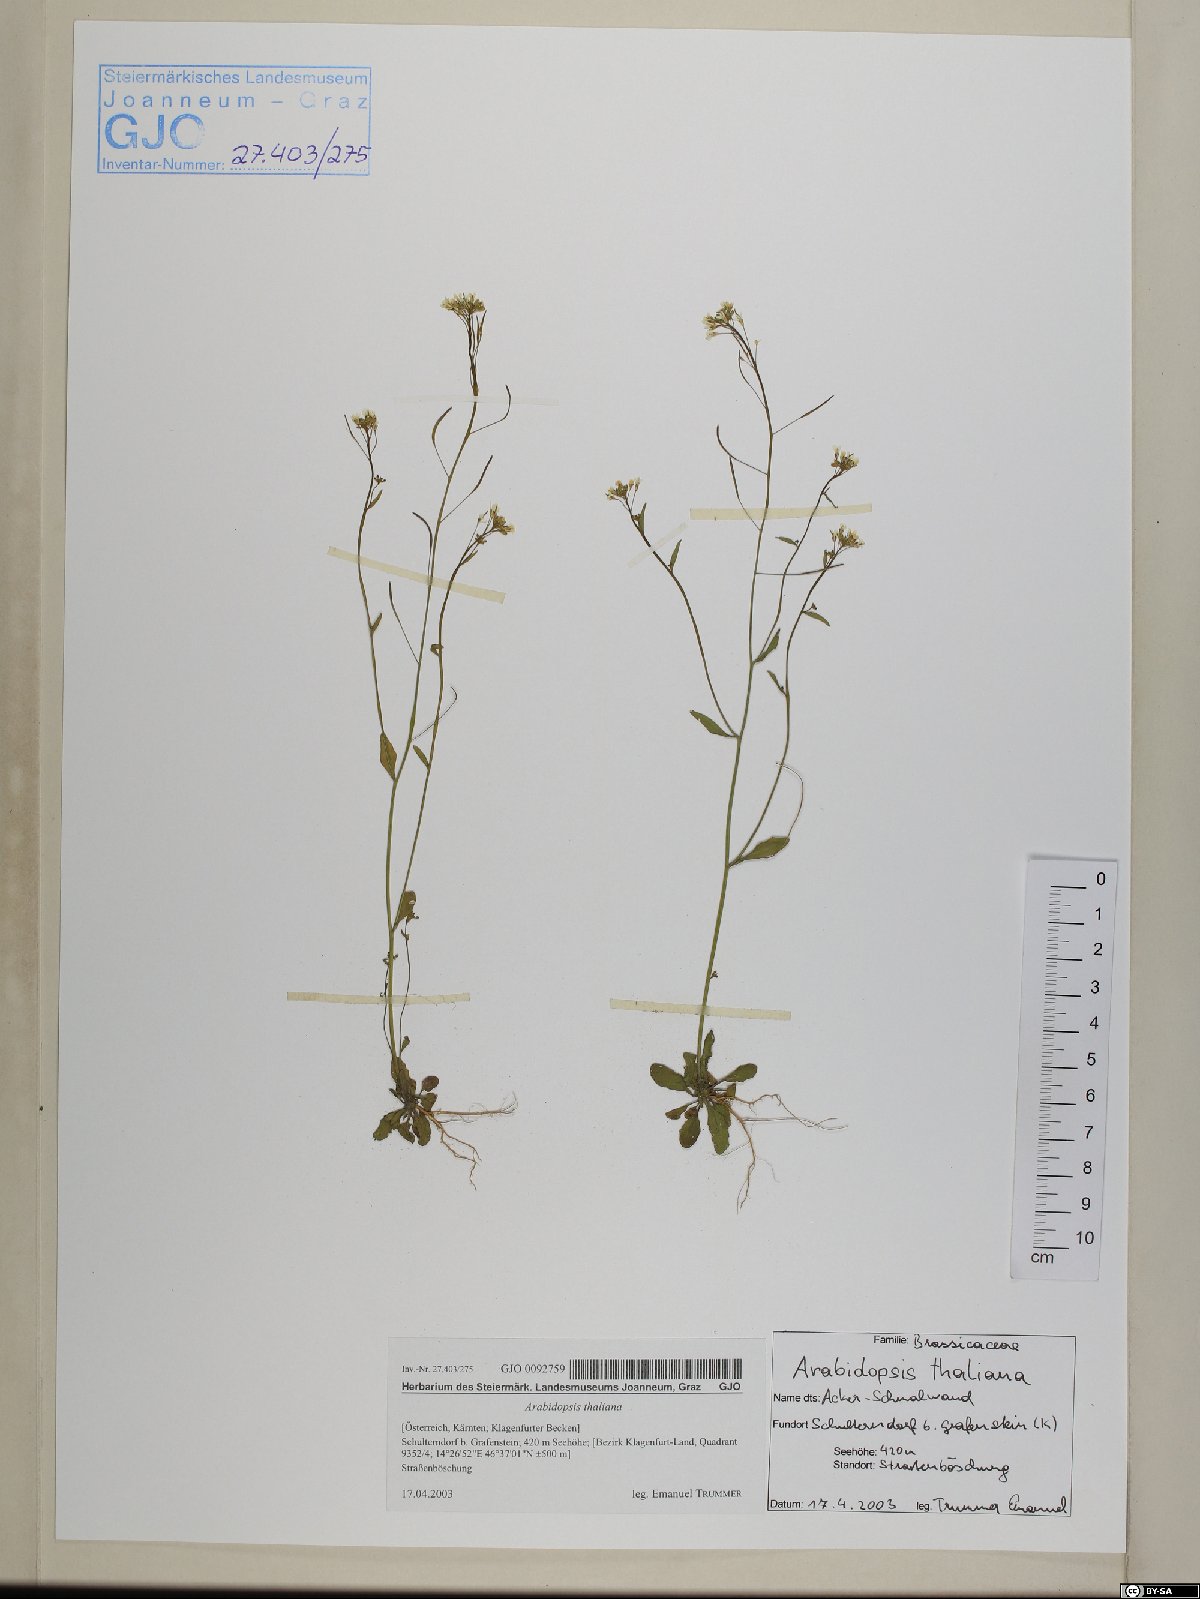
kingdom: Plantae
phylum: Tracheophyta
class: Magnoliopsida
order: Brassicales
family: Brassicaceae
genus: Arabidopsis
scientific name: Arabidopsis thaliana
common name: Thale cress
